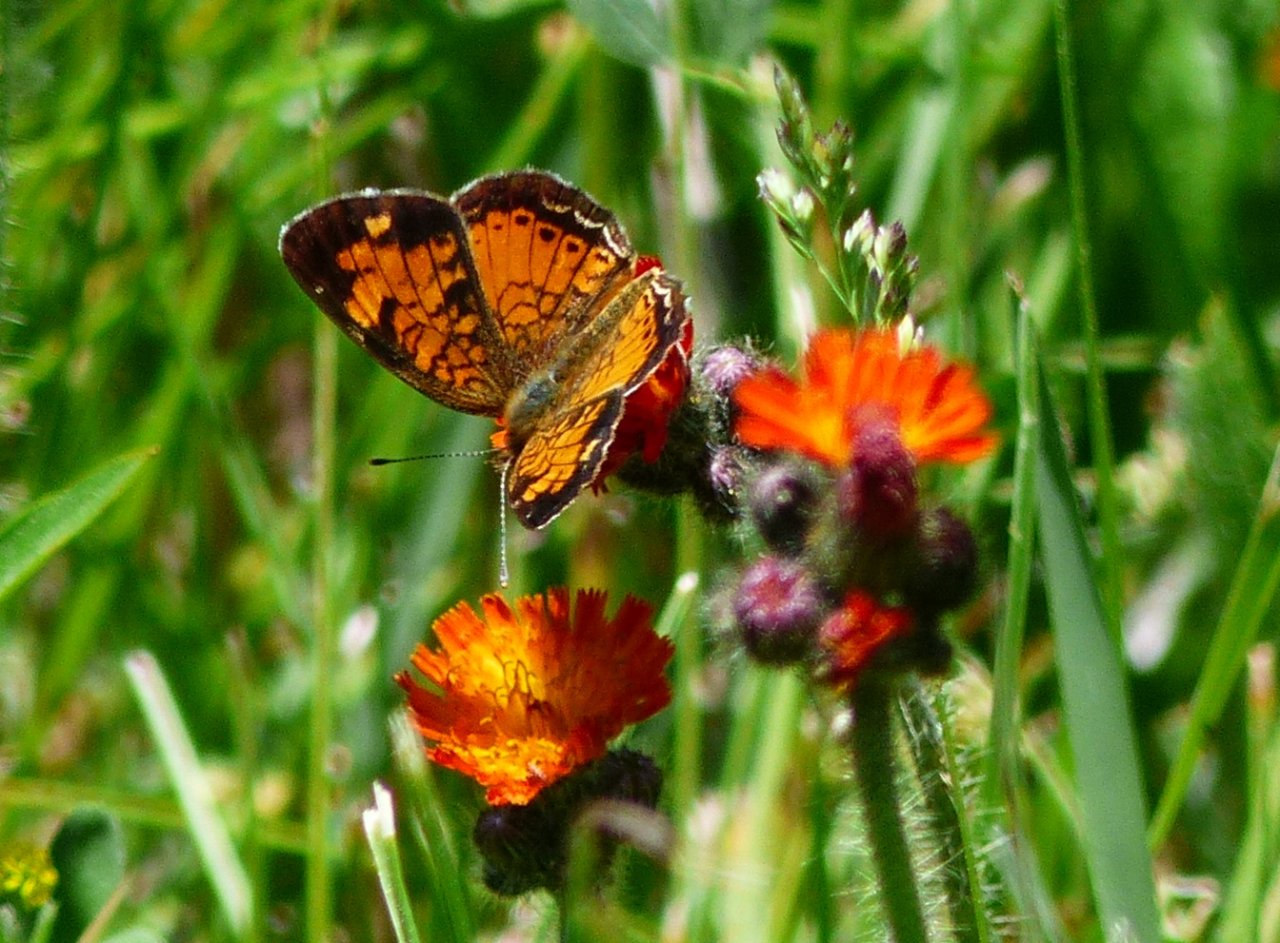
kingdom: Animalia
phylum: Arthropoda
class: Insecta
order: Lepidoptera
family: Nymphalidae
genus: Phyciodes
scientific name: Phyciodes tharos
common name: Northern Crescent
